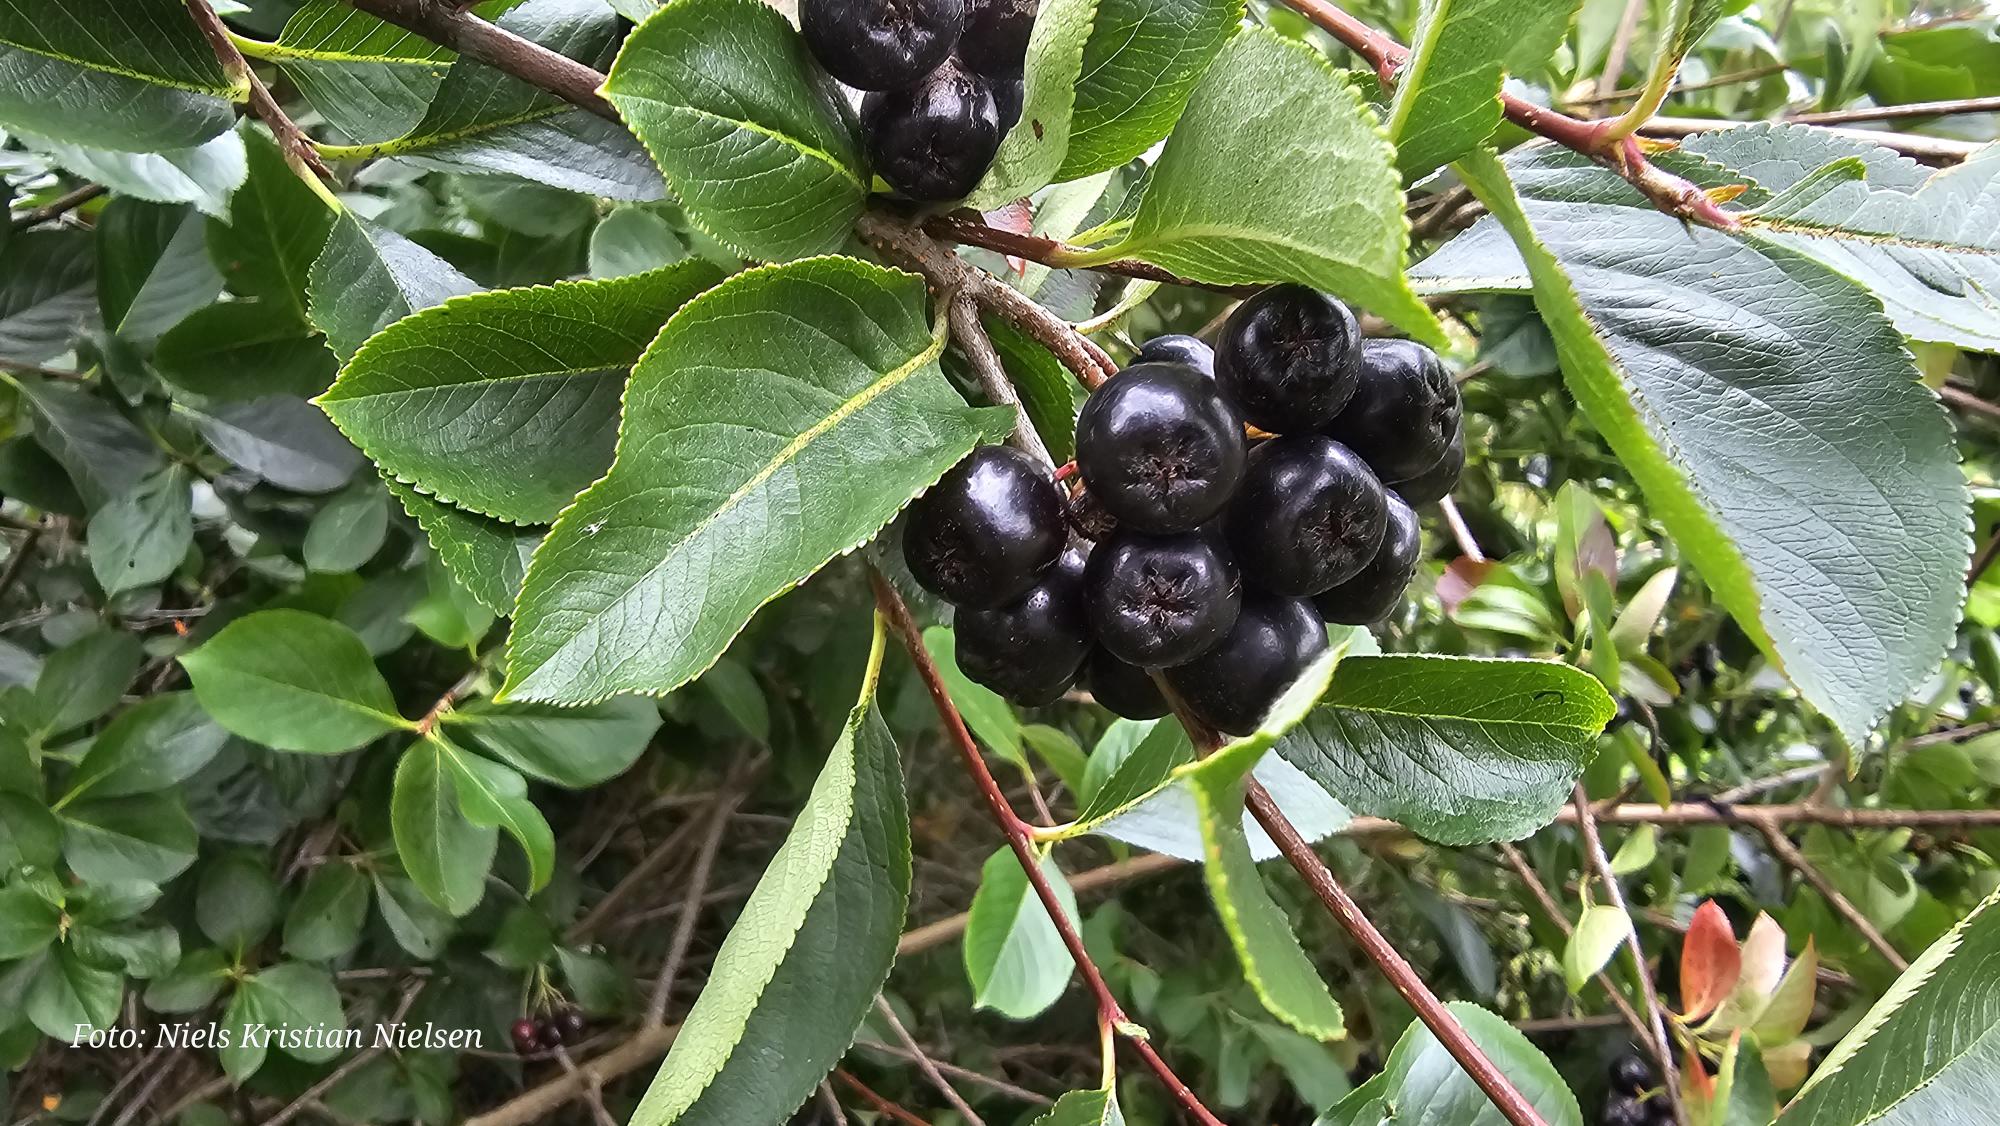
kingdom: Plantae
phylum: Tracheophyta
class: Magnoliopsida
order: Rosales
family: Rosaceae
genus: Aronia
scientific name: Aronia melanocarpa
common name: Sortfrugtet surbær
